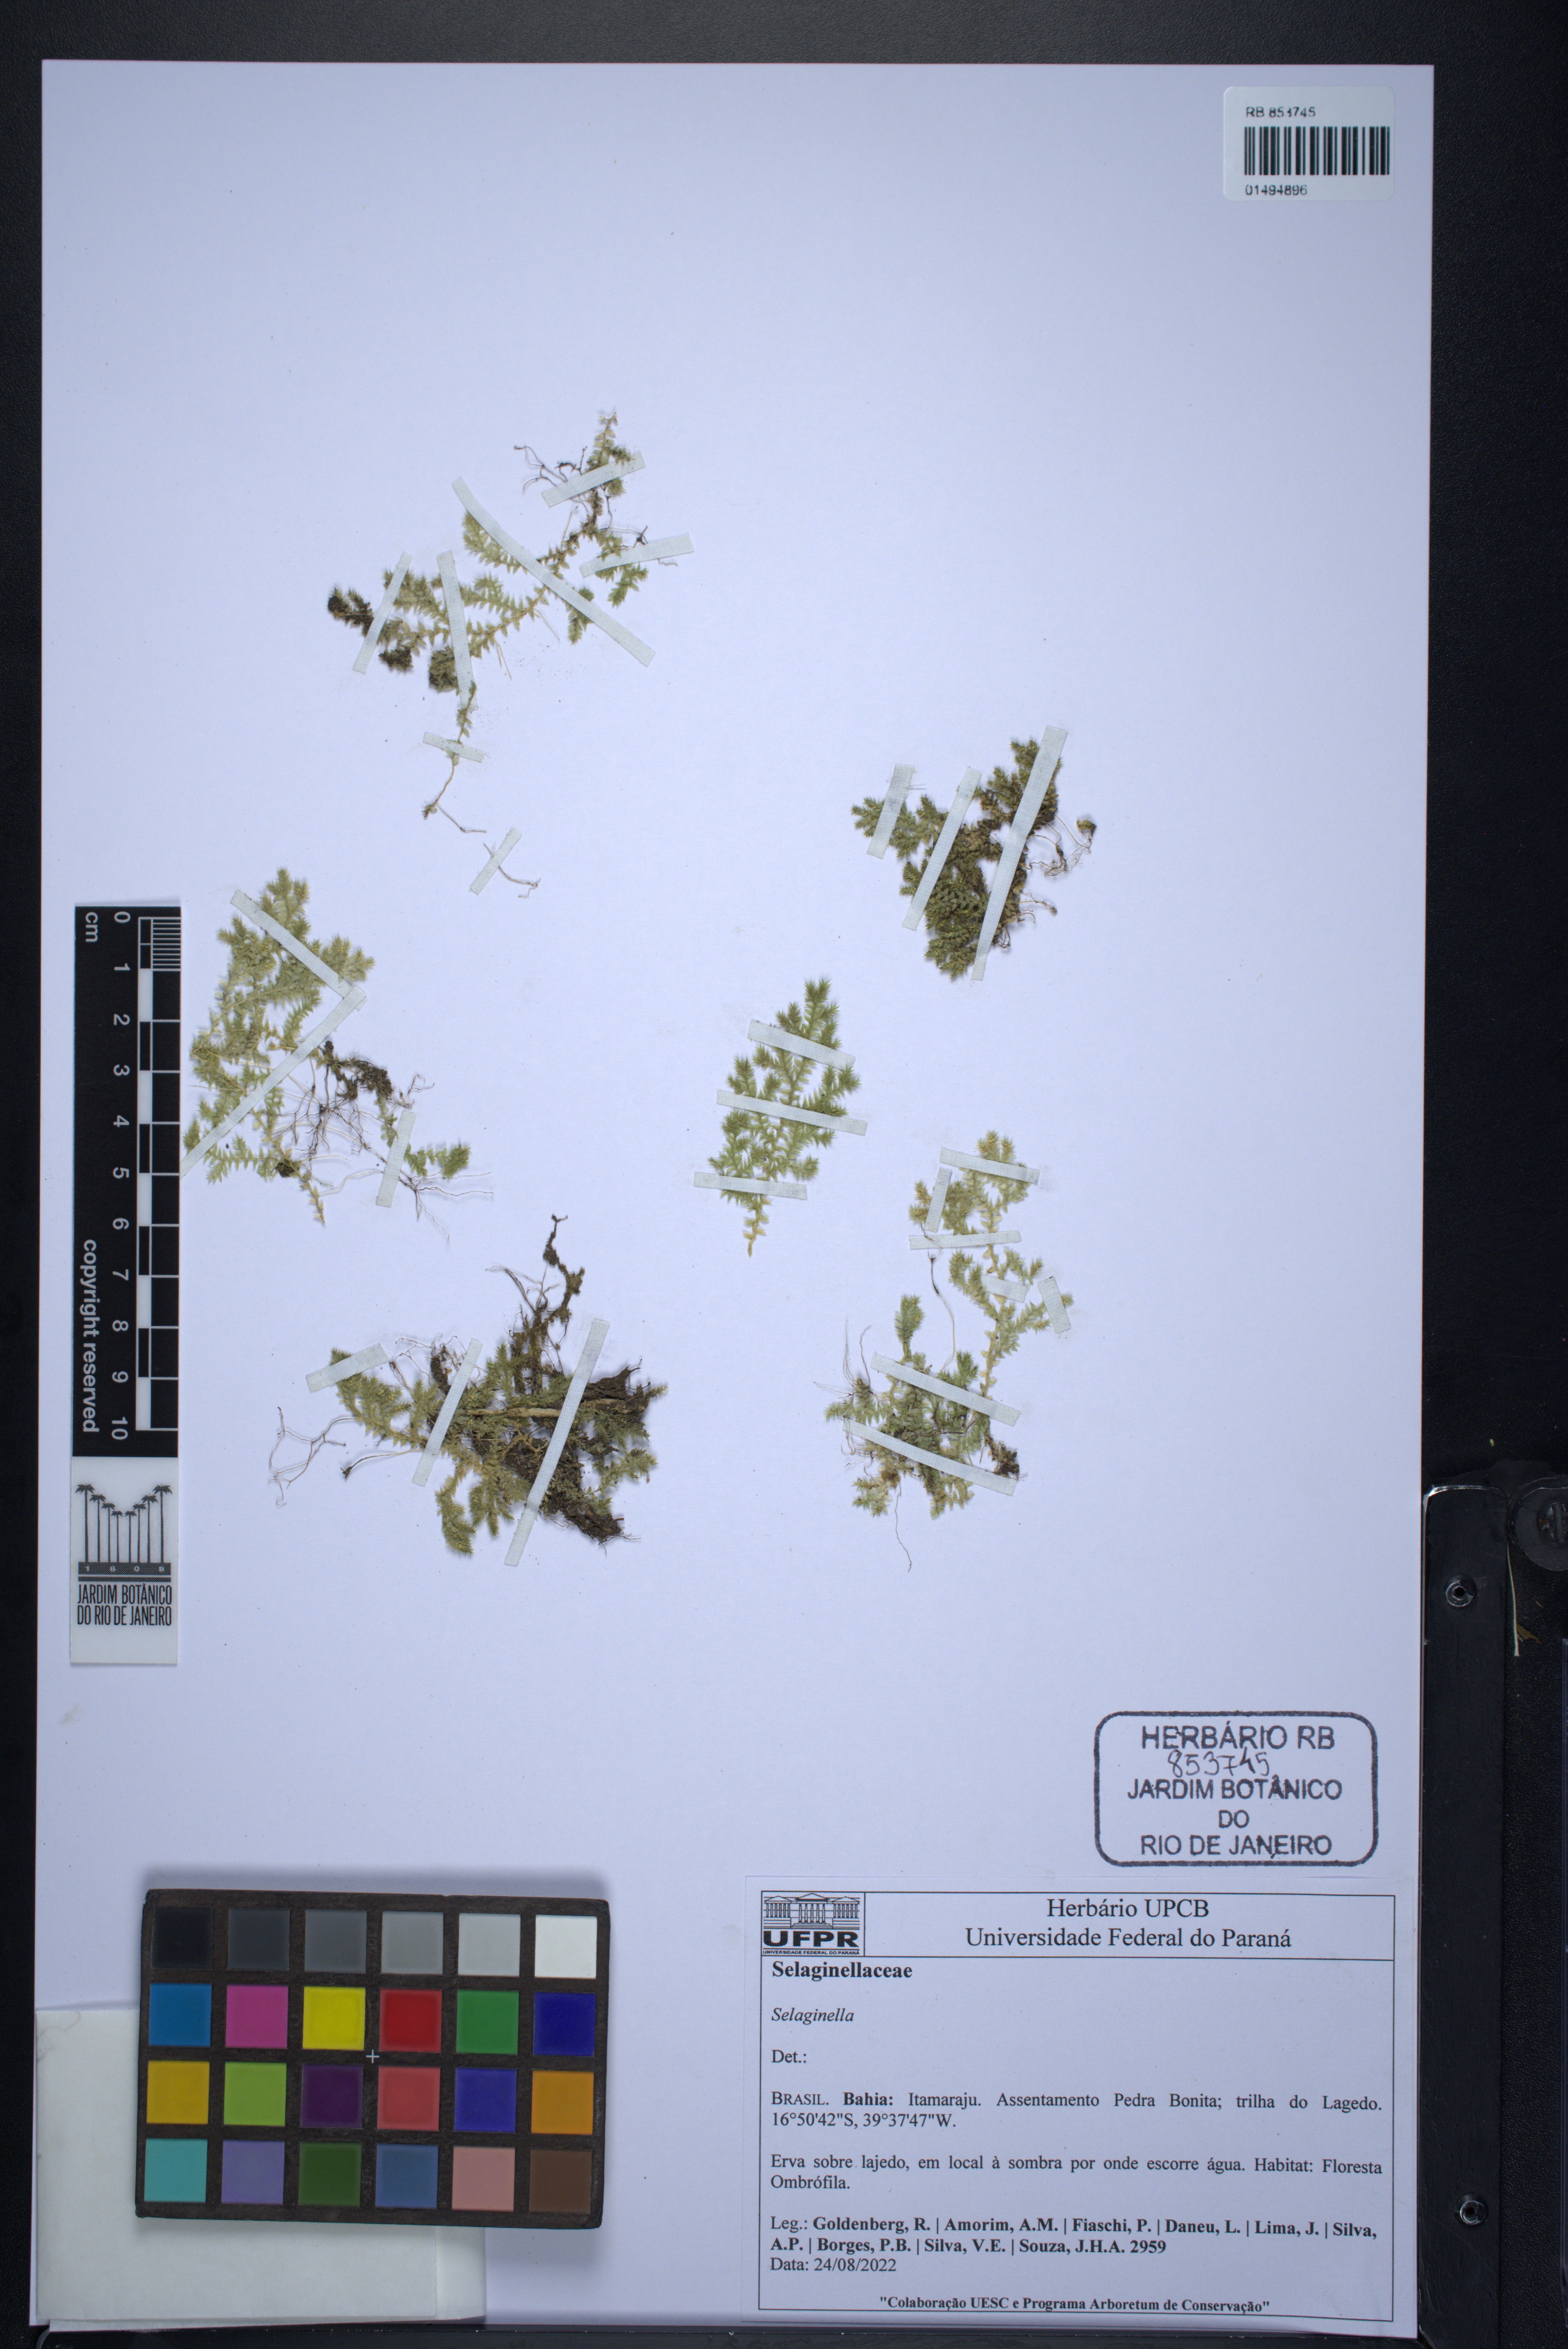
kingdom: Plantae
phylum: Tracheophyta
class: Lycopodiopsida
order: Selaginellales
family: Selaginellaceae
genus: Selaginella
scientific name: Selaginella
